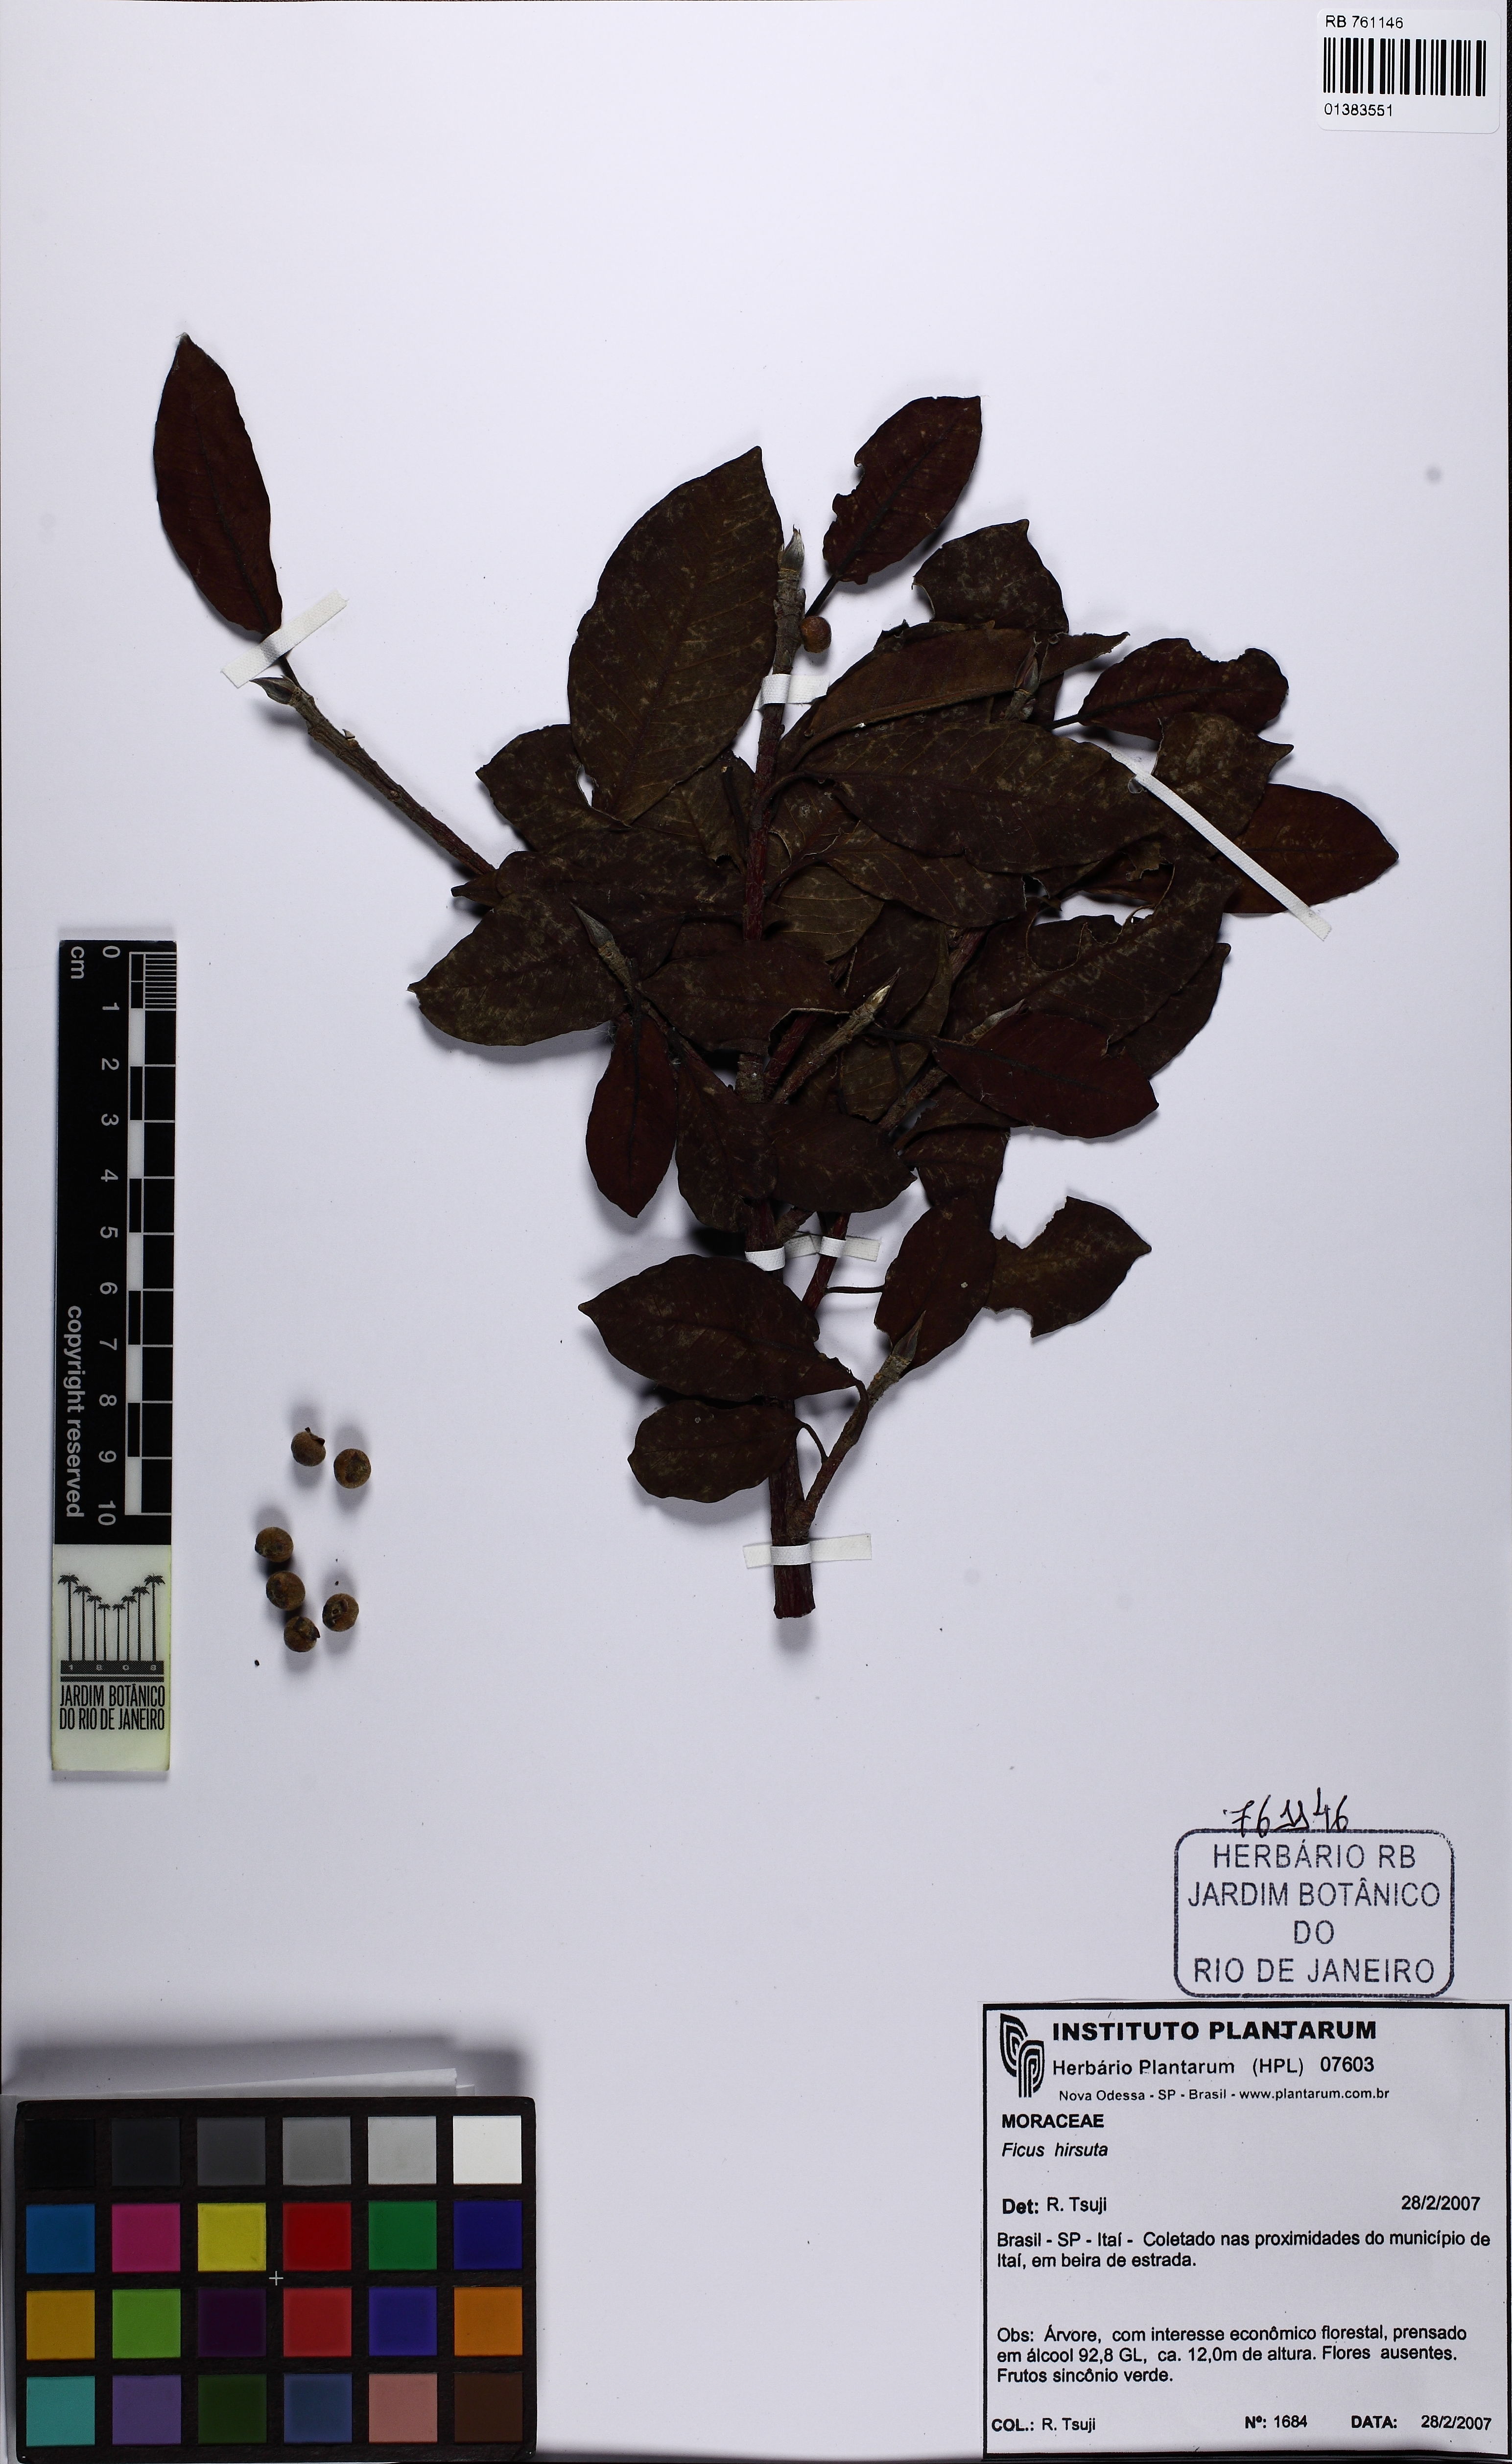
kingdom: Plantae
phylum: Tracheophyta
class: Magnoliopsida
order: Rosales
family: Moraceae
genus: Ficus
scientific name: Ficus hirsuta
